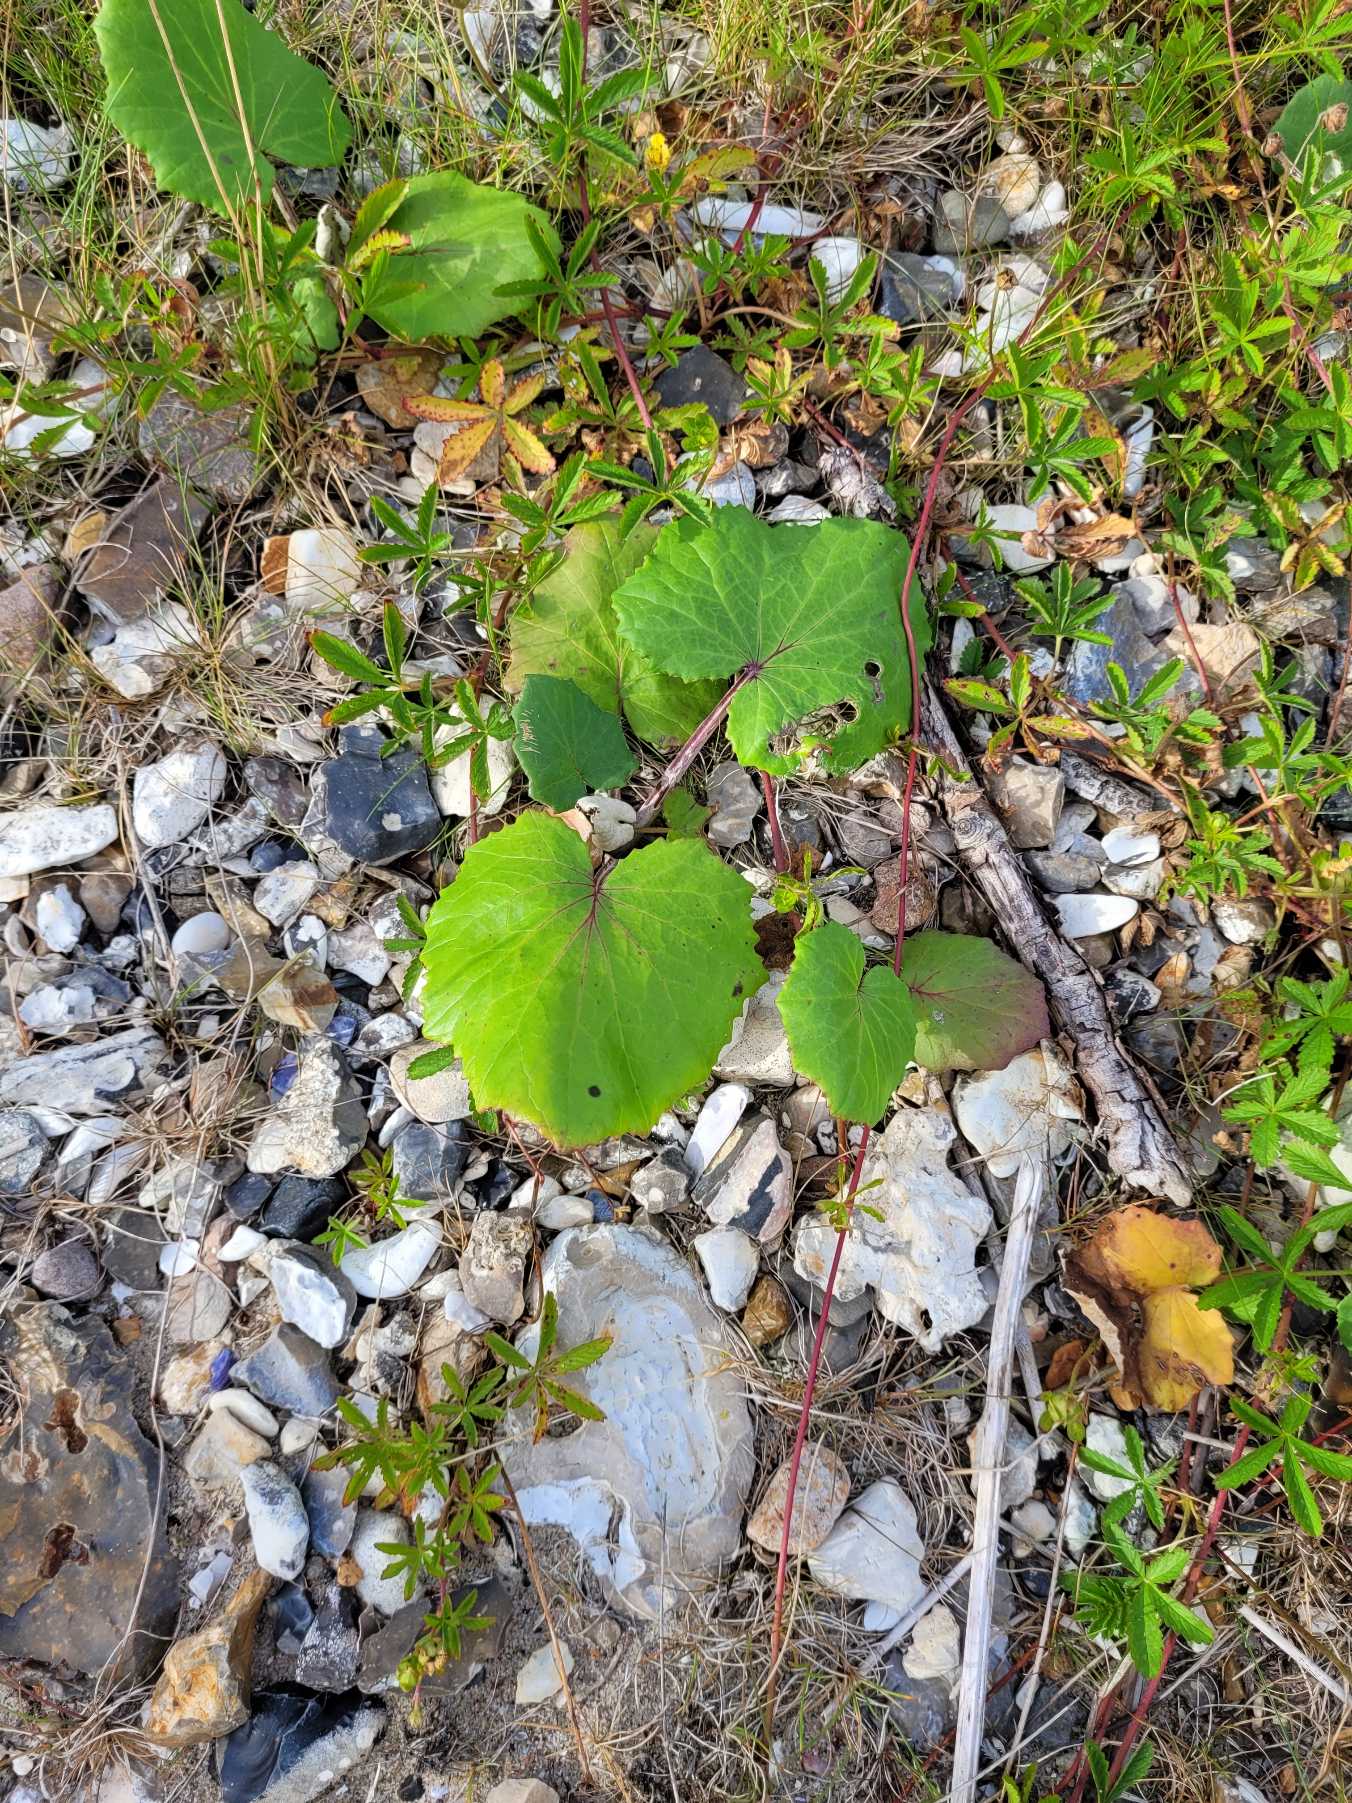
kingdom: Plantae
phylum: Tracheophyta
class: Magnoliopsida
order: Asterales
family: Asteraceae
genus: Tussilago
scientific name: Tussilago farfara
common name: Følfod
